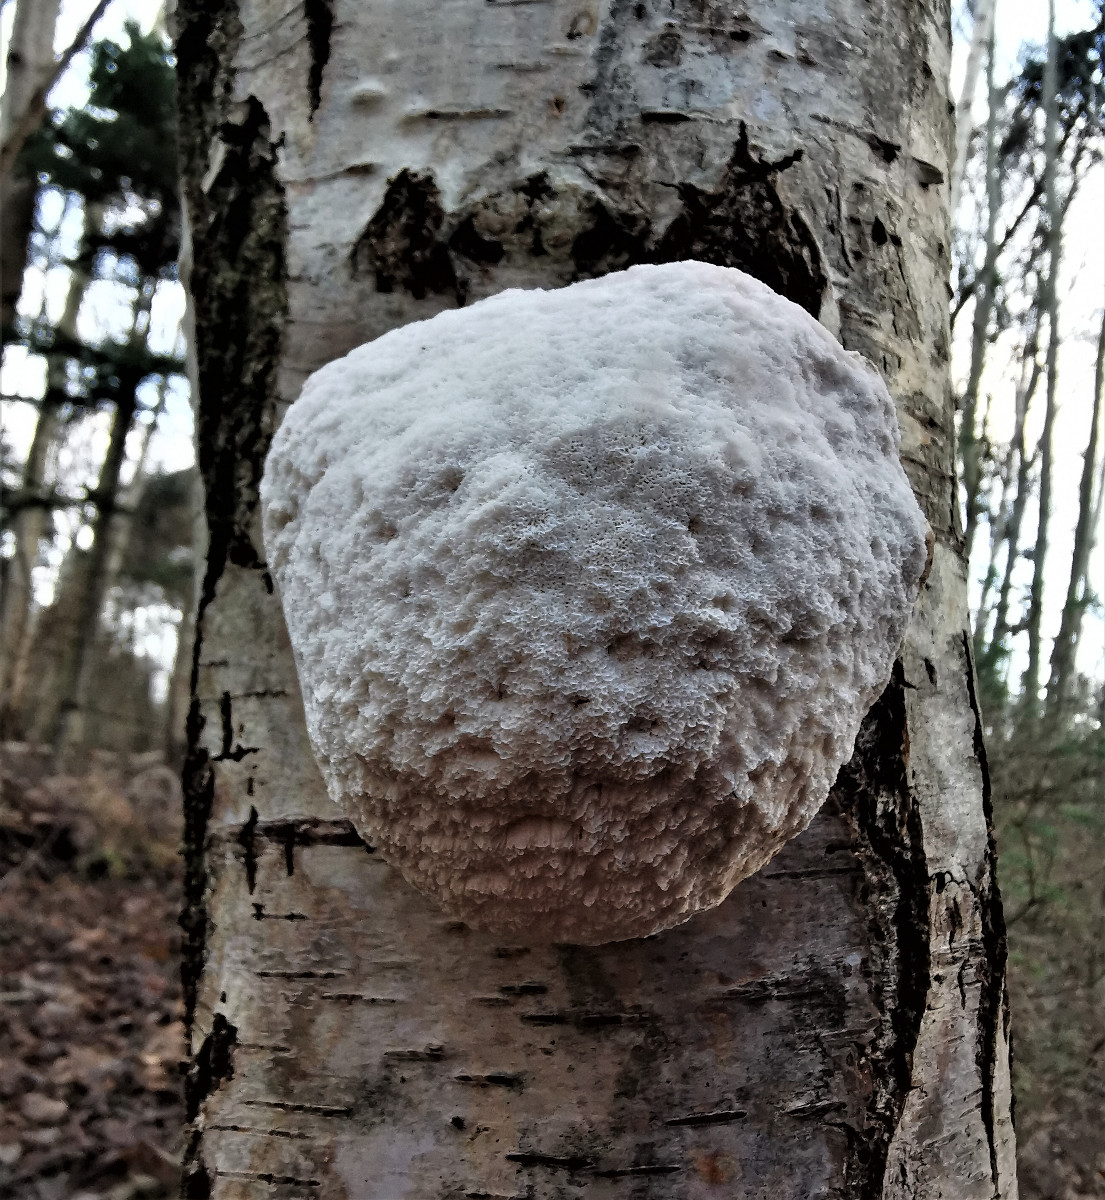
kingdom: Fungi
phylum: Basidiomycota
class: Agaricomycetes
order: Polyporales
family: Fomitopsidaceae
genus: Fomitopsis
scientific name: Fomitopsis betulina
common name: birkeporesvamp
